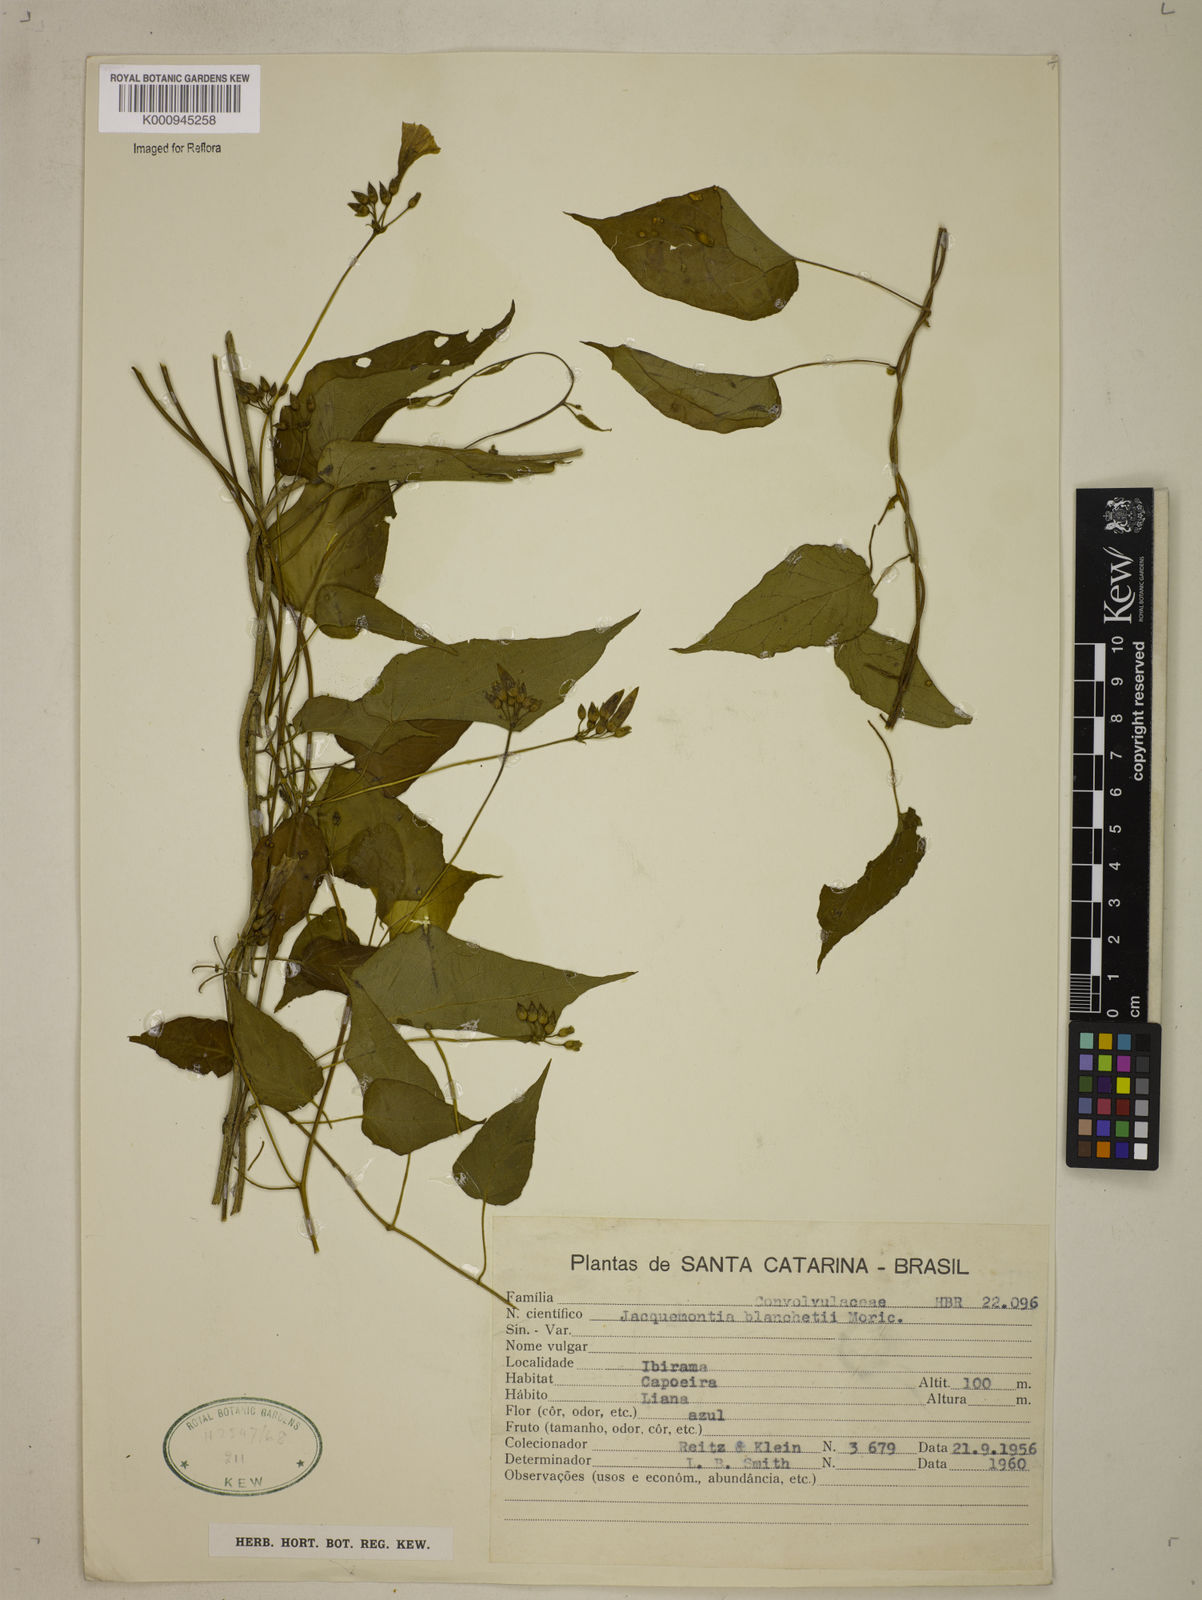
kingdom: Plantae
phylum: Tracheophyta
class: Magnoliopsida
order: Solanales
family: Convolvulaceae
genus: Jacquemontia
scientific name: Jacquemontia blanchetii
